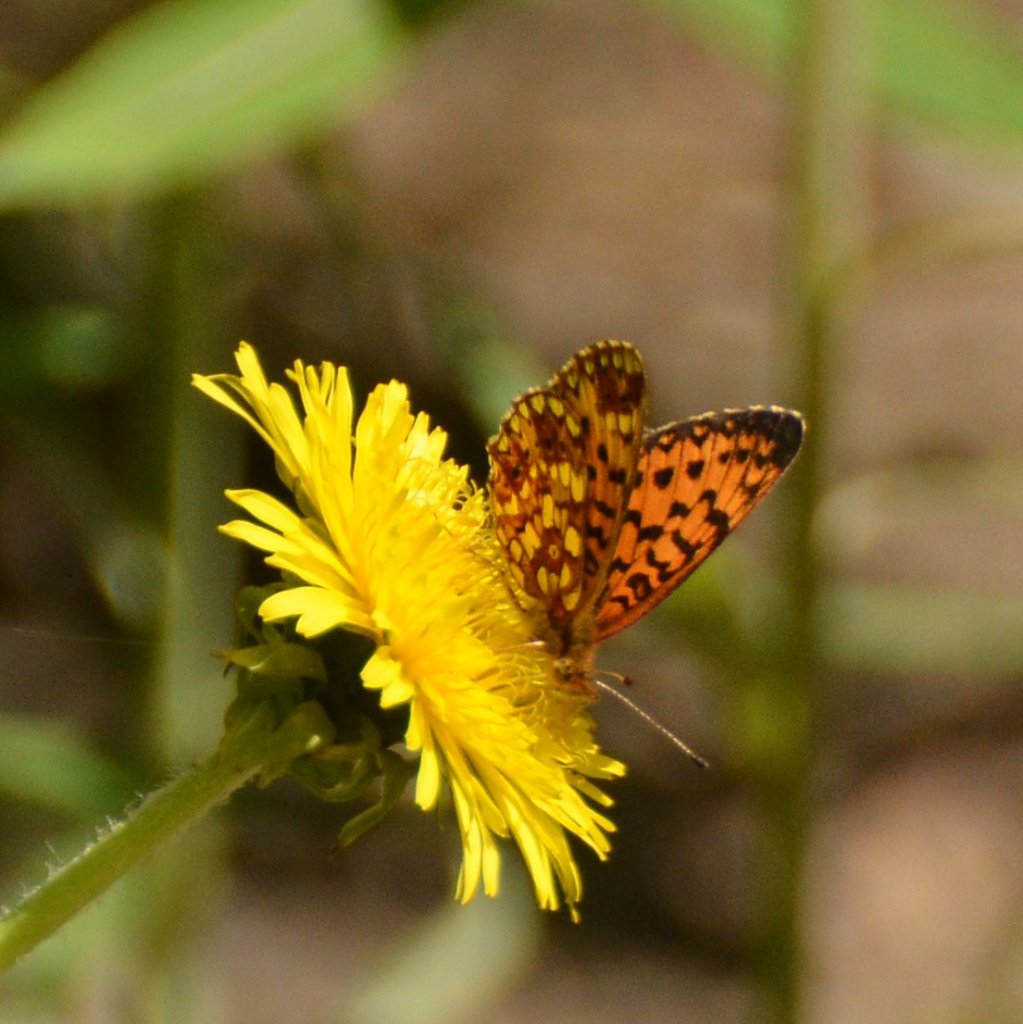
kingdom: Animalia
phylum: Arthropoda
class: Insecta
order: Lepidoptera
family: Nymphalidae
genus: Boloria
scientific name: Boloria selene
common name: Silver-bordered Fritillary
